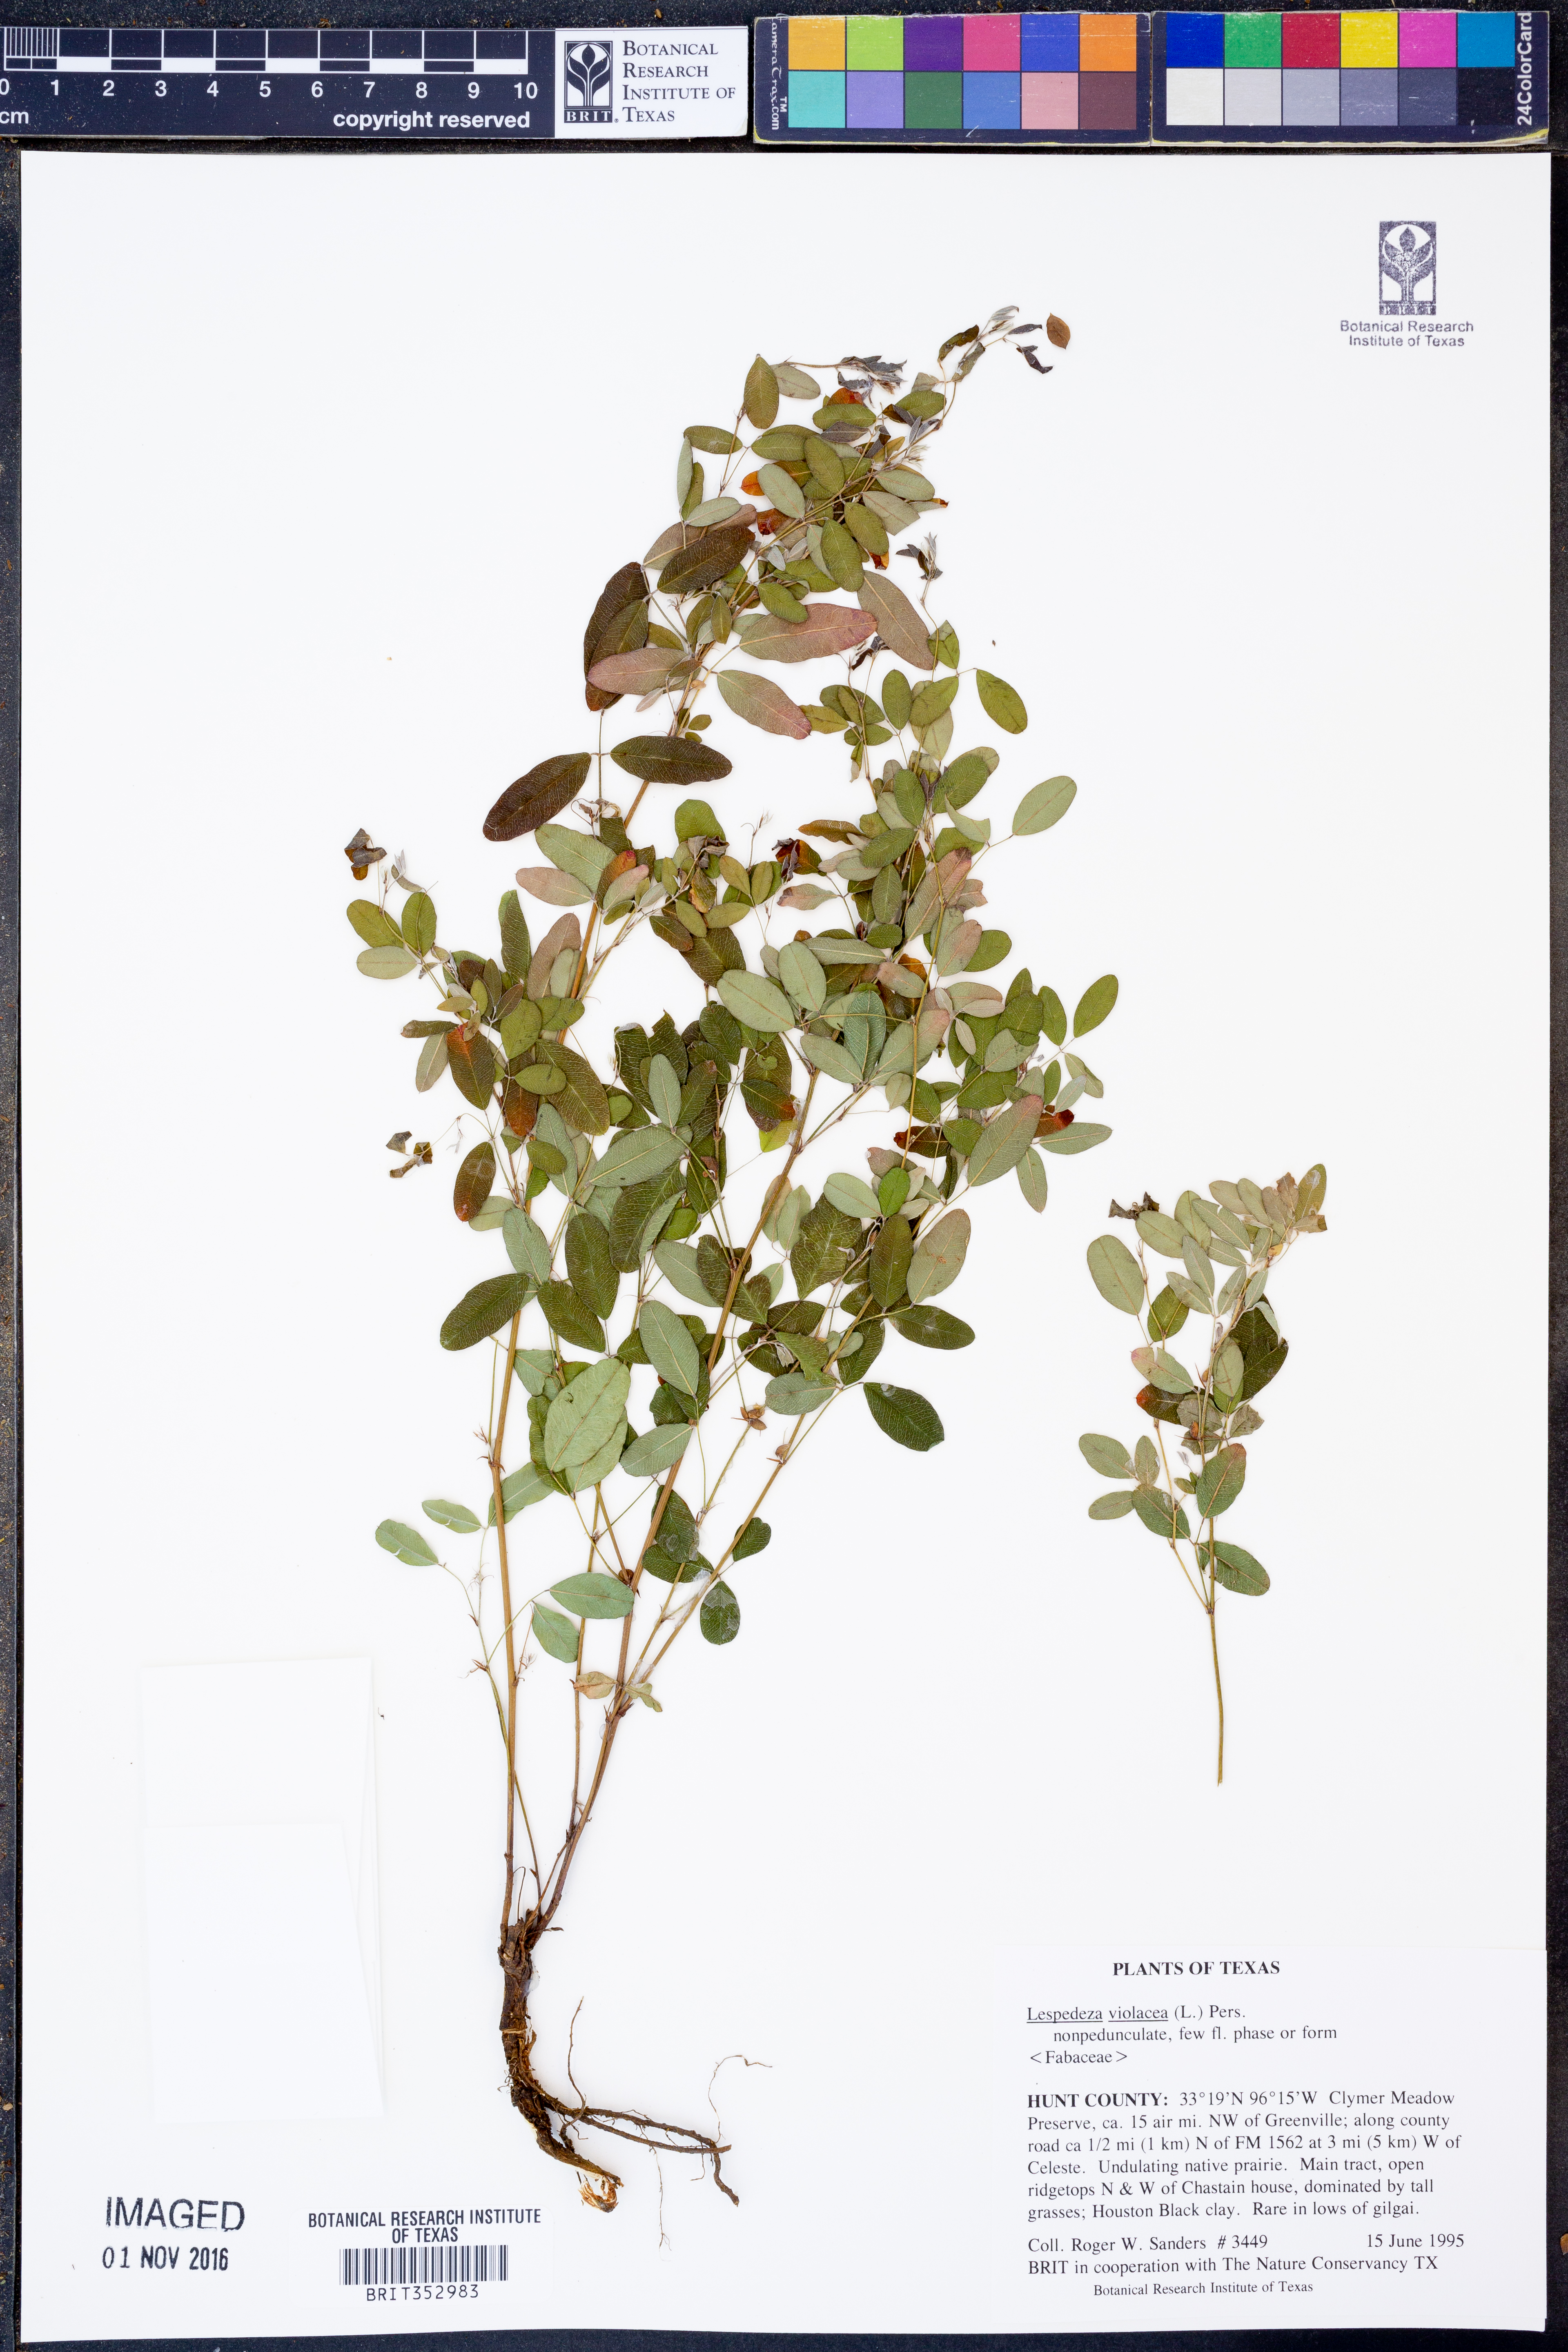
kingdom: Plantae
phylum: Tracheophyta
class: Magnoliopsida
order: Fabales
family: Fabaceae
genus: Lespedeza
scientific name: Lespedeza violacea
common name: Wand bush-clover
